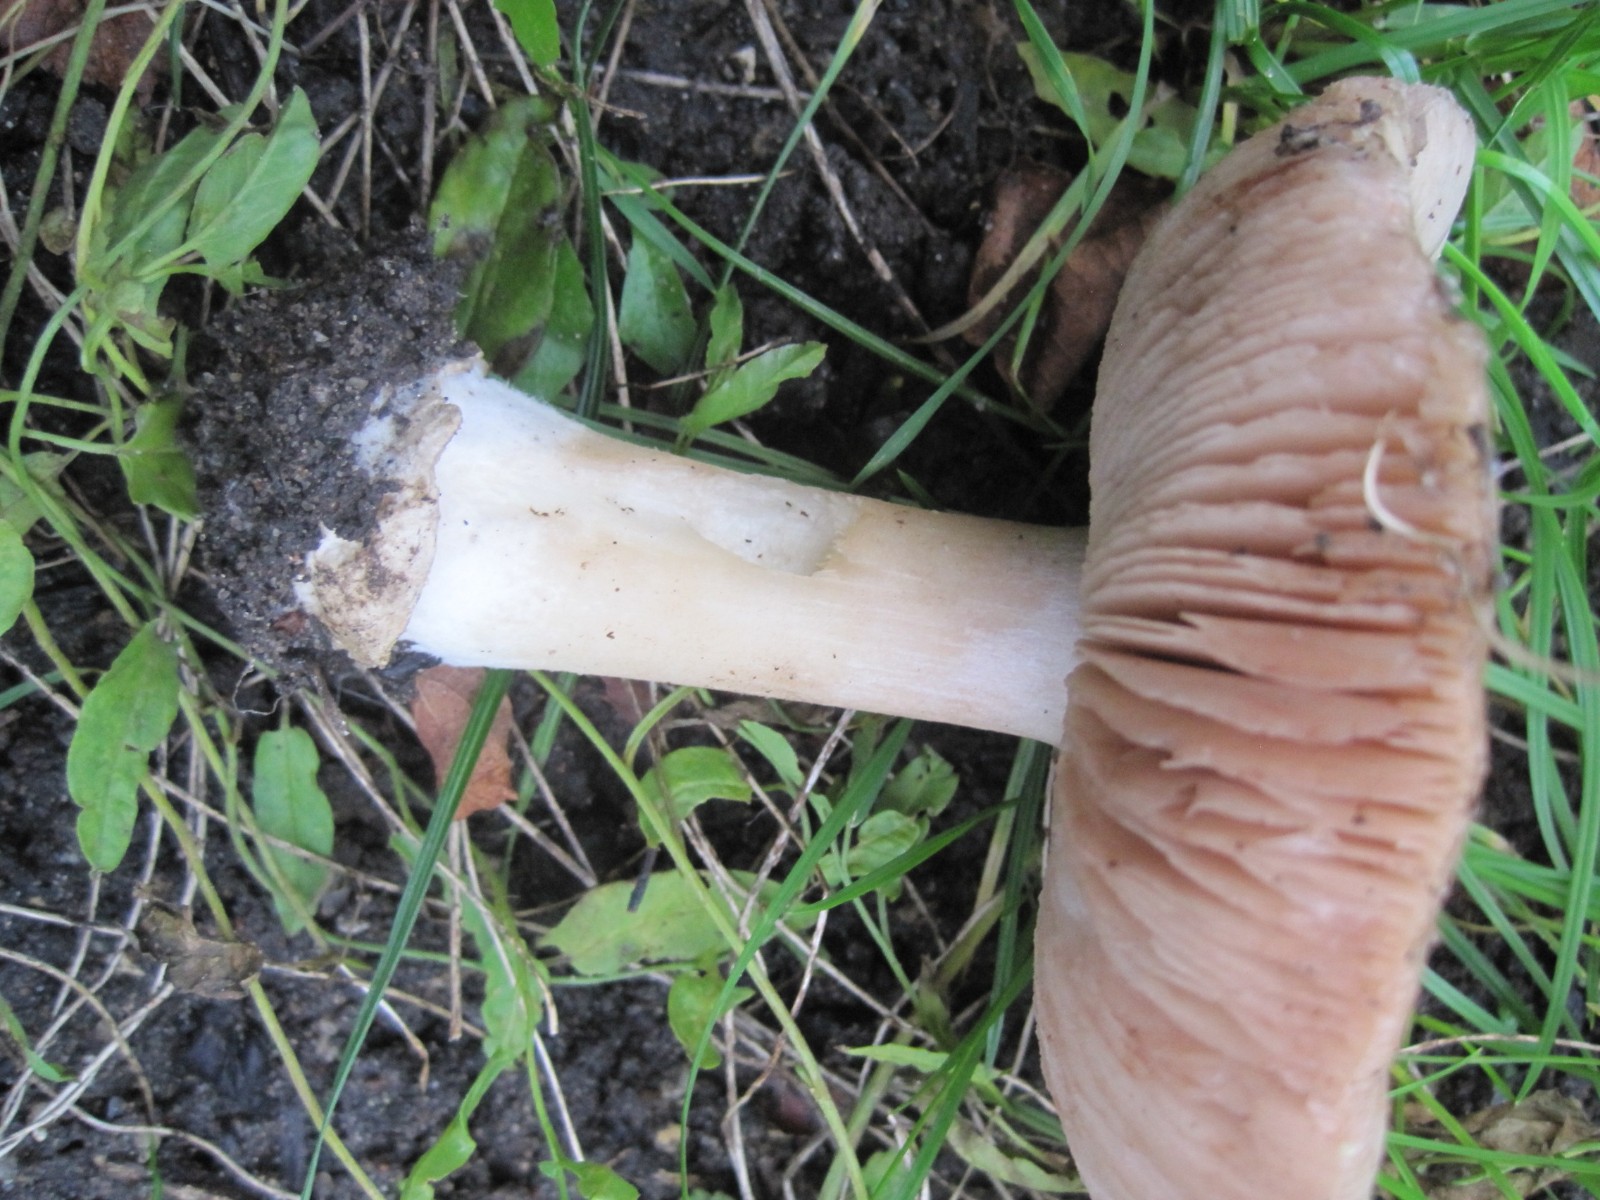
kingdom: Fungi
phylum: Basidiomycota
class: Agaricomycetes
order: Agaricales
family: Pluteaceae
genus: Volvopluteus
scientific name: Volvopluteus gloiocephalus
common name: høj posesvamp
